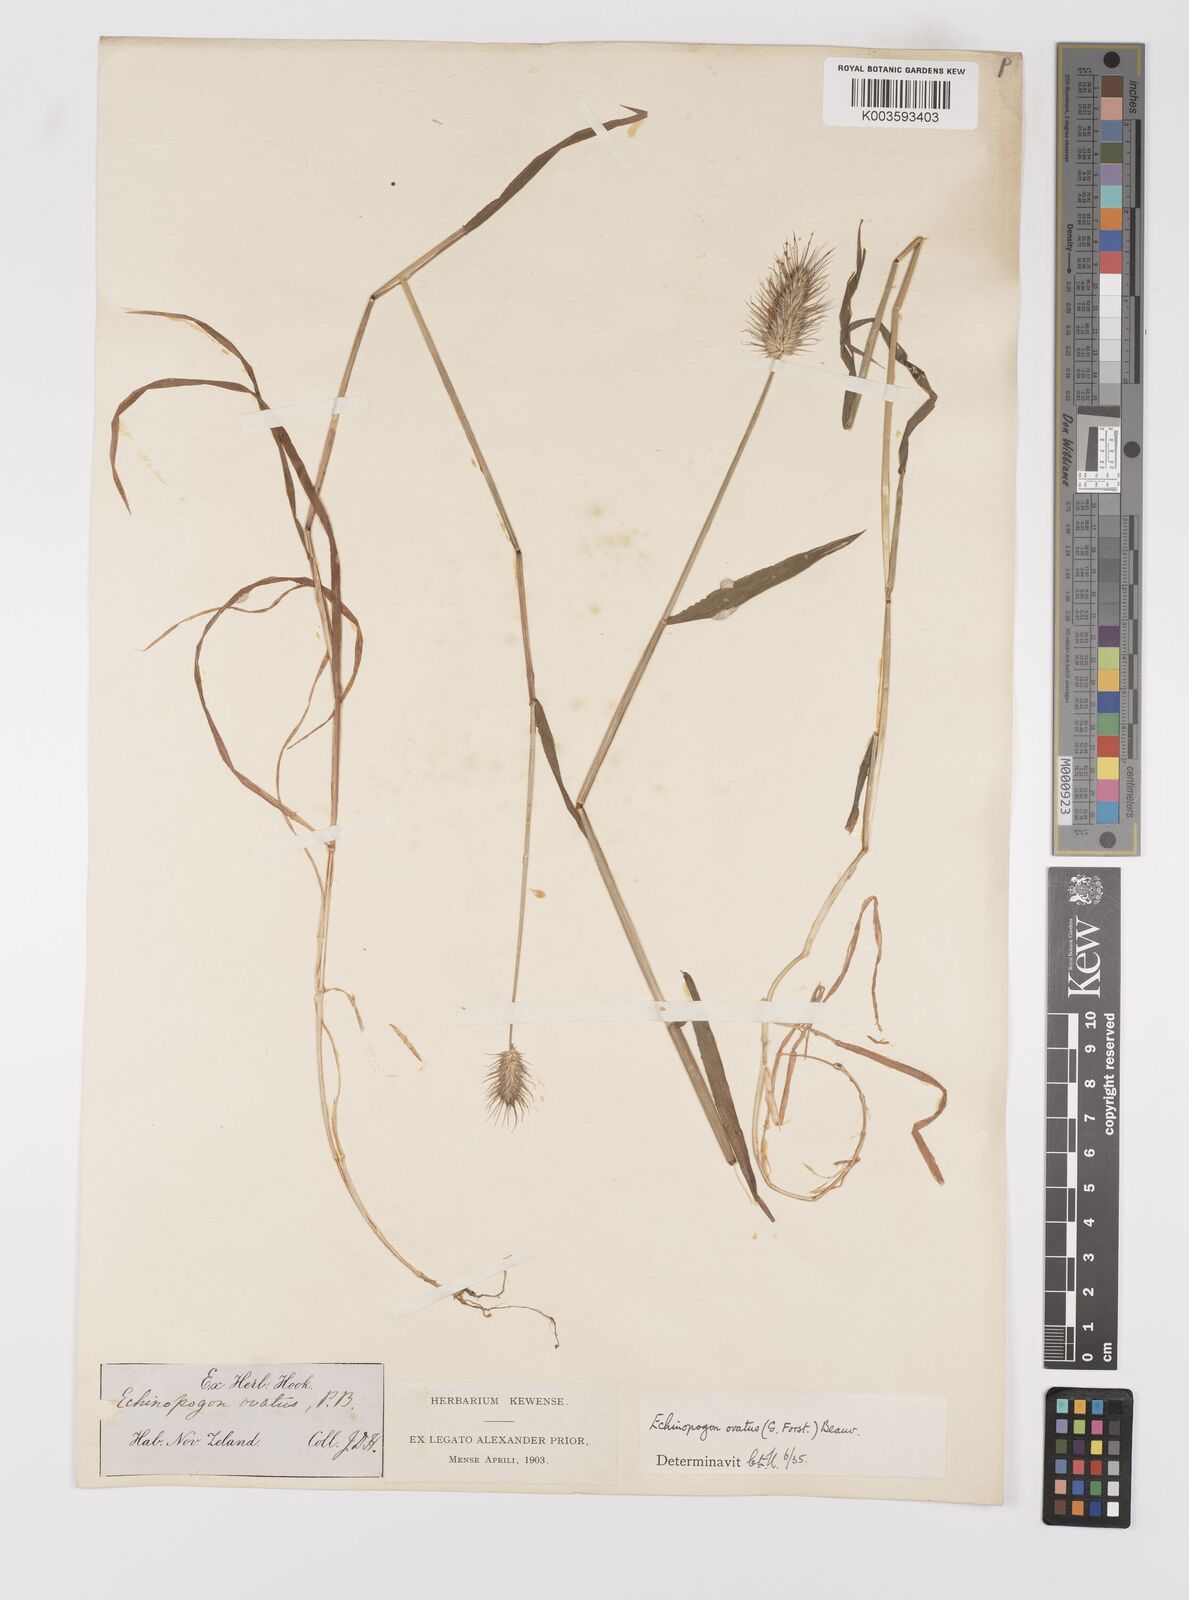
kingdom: Plantae
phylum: Tracheophyta
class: Liliopsida
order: Poales
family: Poaceae
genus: Echinopogon
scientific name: Echinopogon ovatus
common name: Hedgehog-grass
